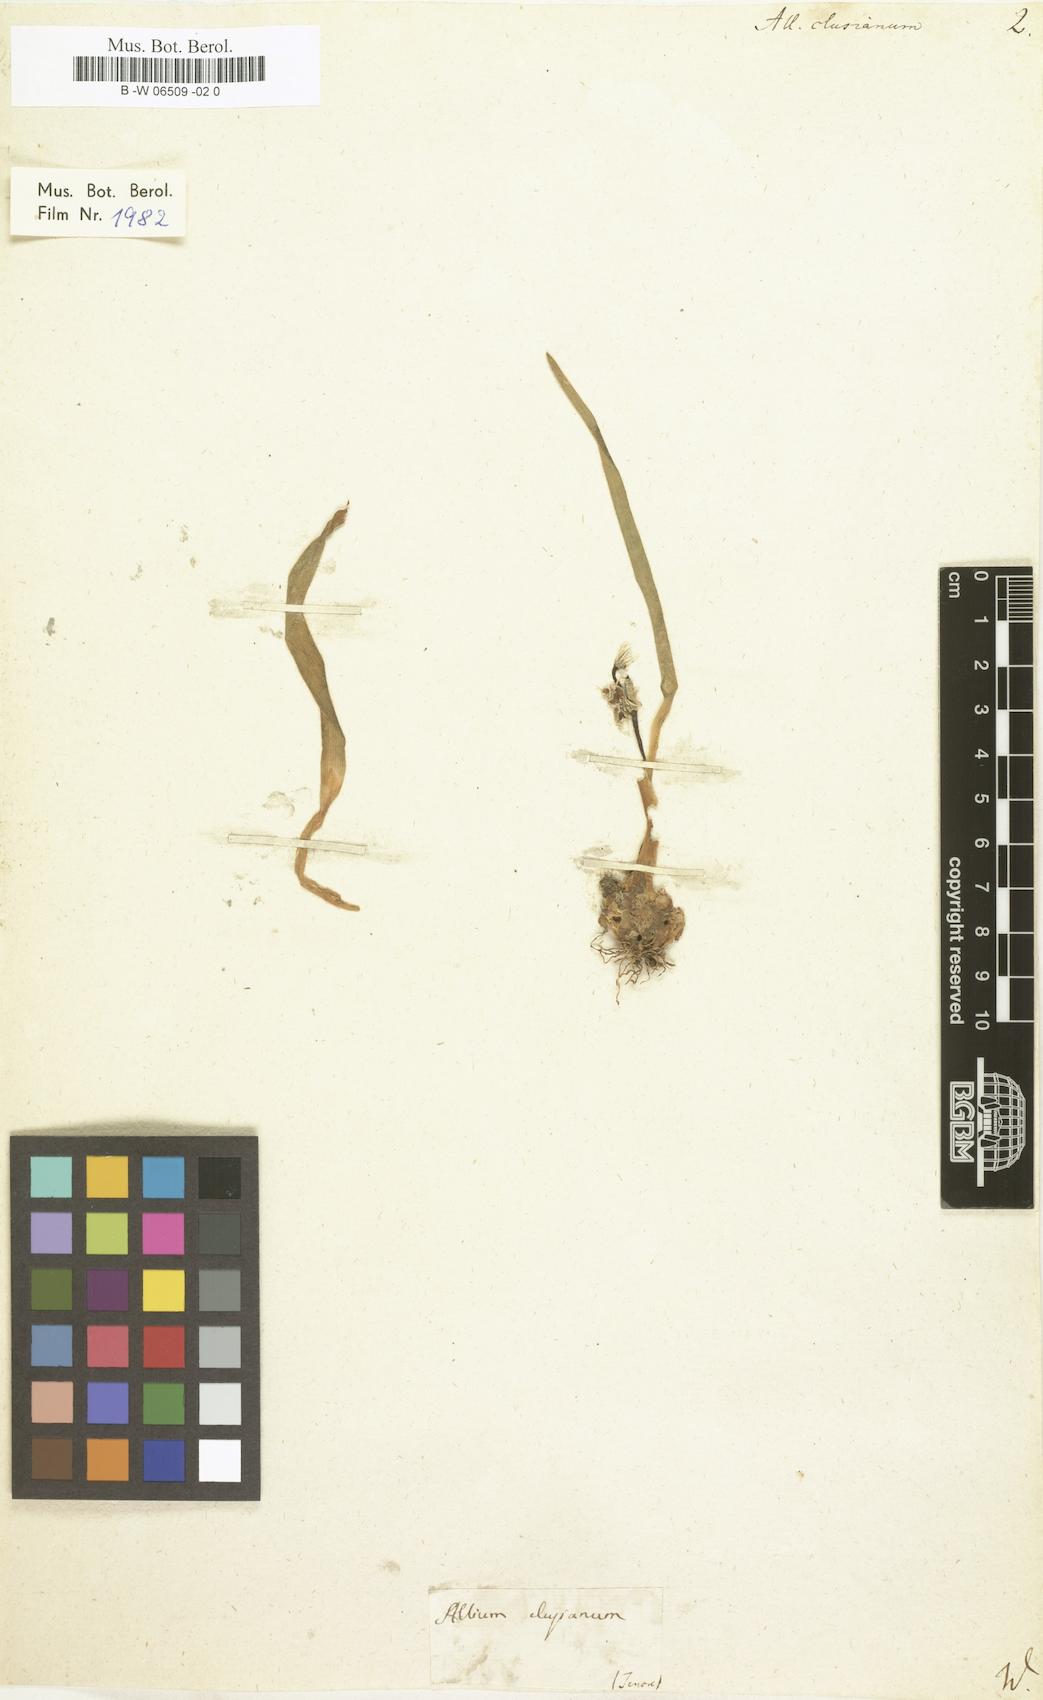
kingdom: Plantae
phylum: Tracheophyta
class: Liliopsida
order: Asparagales
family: Amaryllidaceae
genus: Allium
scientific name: Allium
